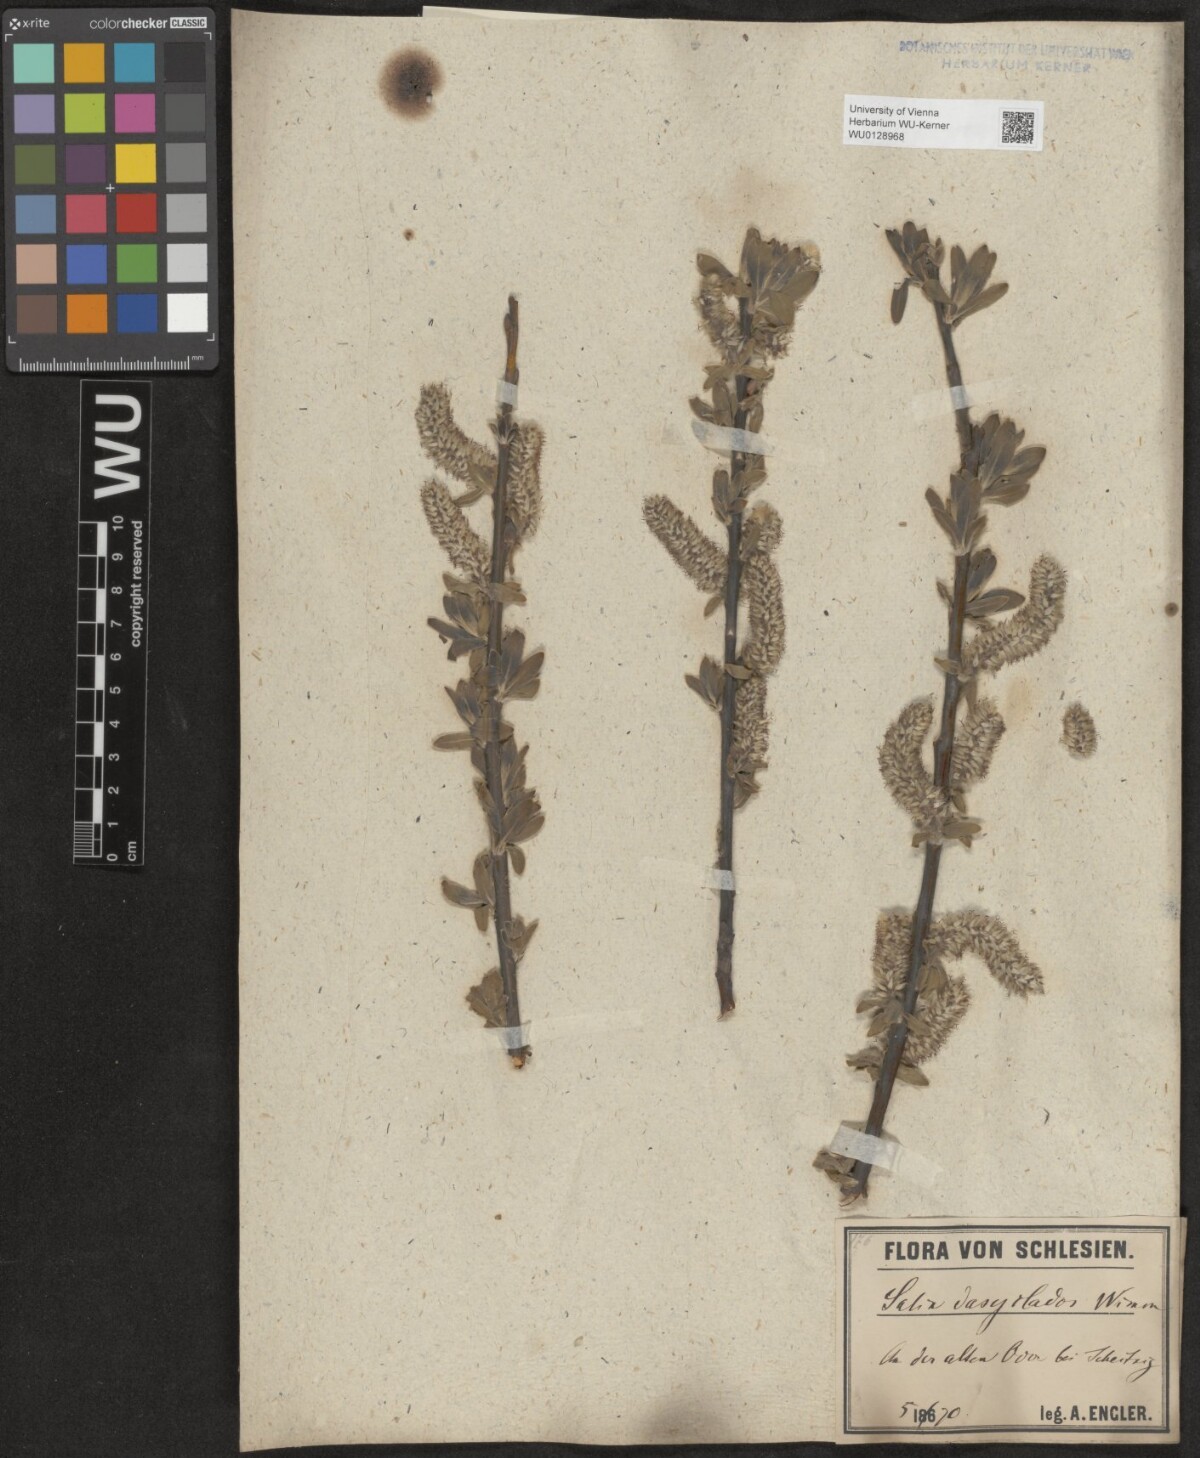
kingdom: Plantae
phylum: Tracheophyta
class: Magnoliopsida
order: Malpighiales
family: Salicaceae
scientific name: Salicaceae
